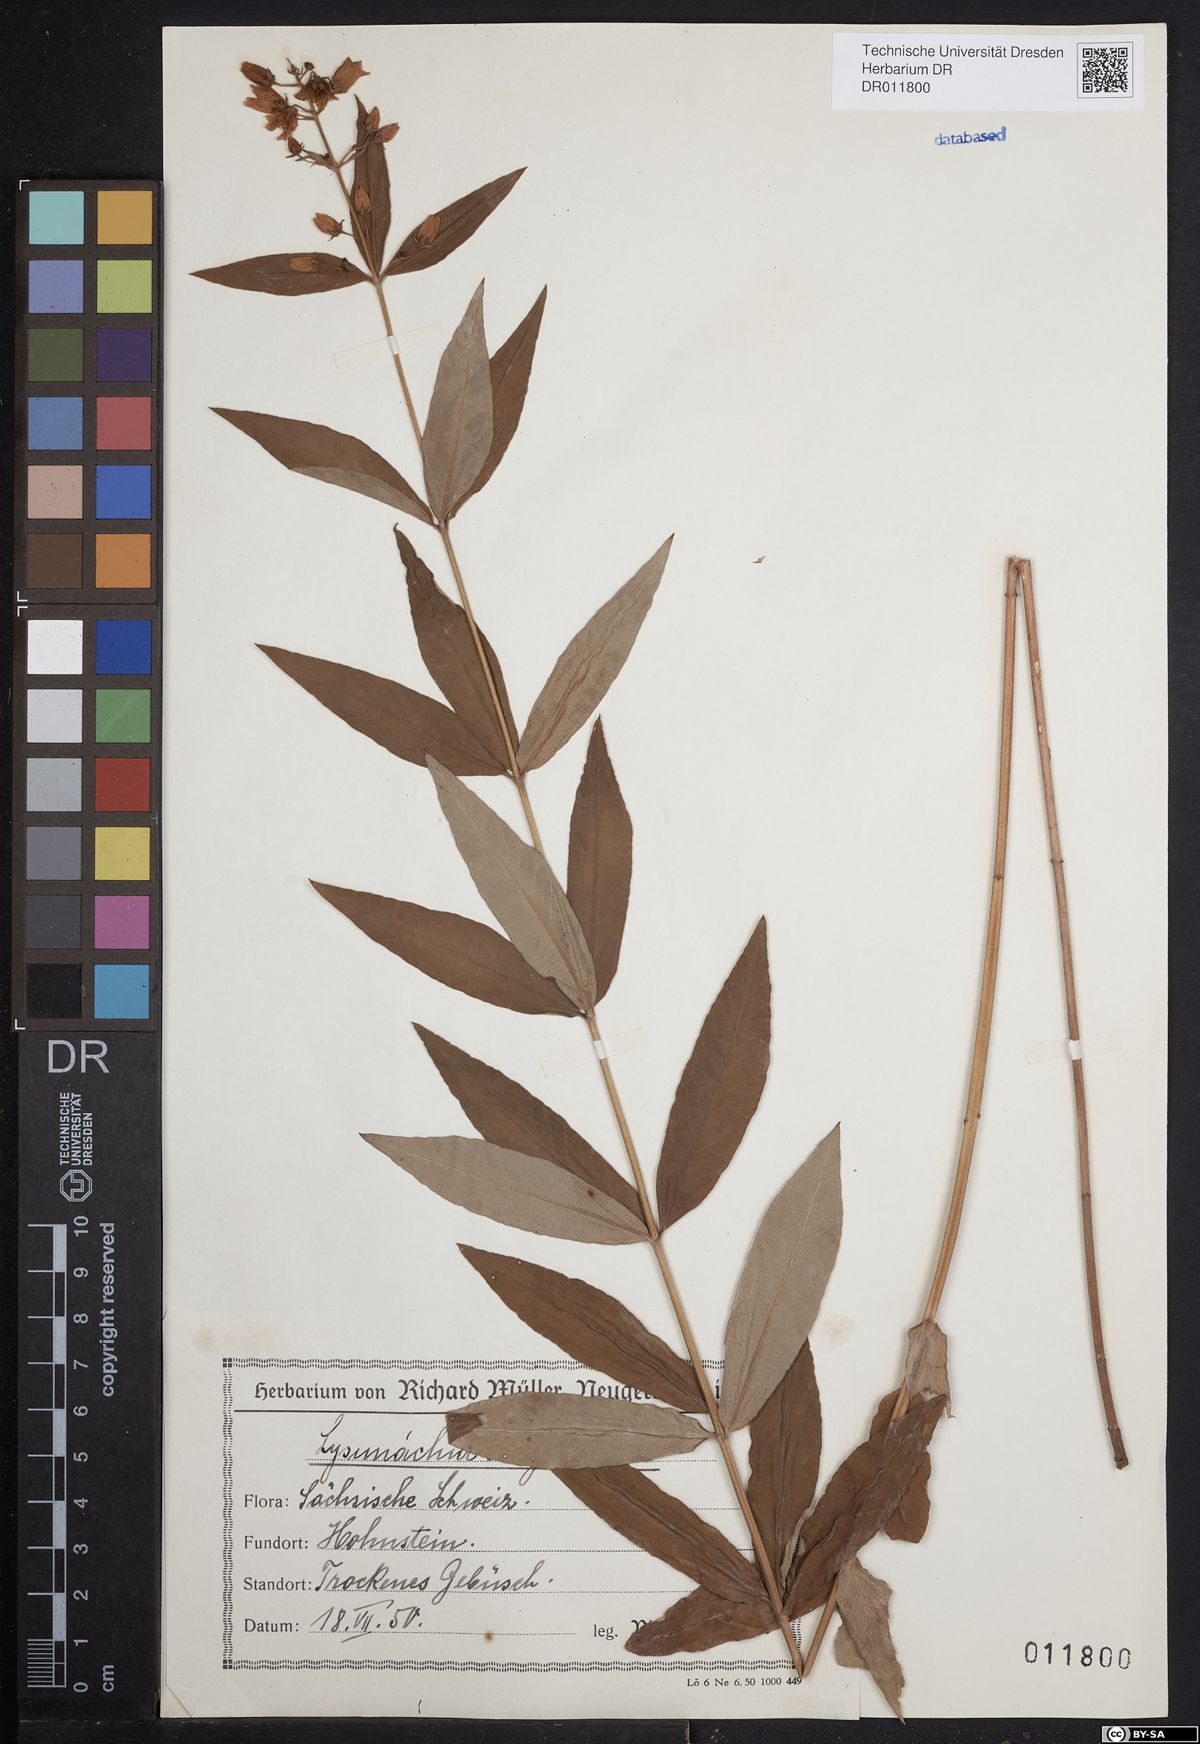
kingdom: Plantae
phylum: Tracheophyta
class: Magnoliopsida
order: Ericales
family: Primulaceae
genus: Lysimachia
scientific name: Lysimachia vulgaris
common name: Yellow loosestrife
